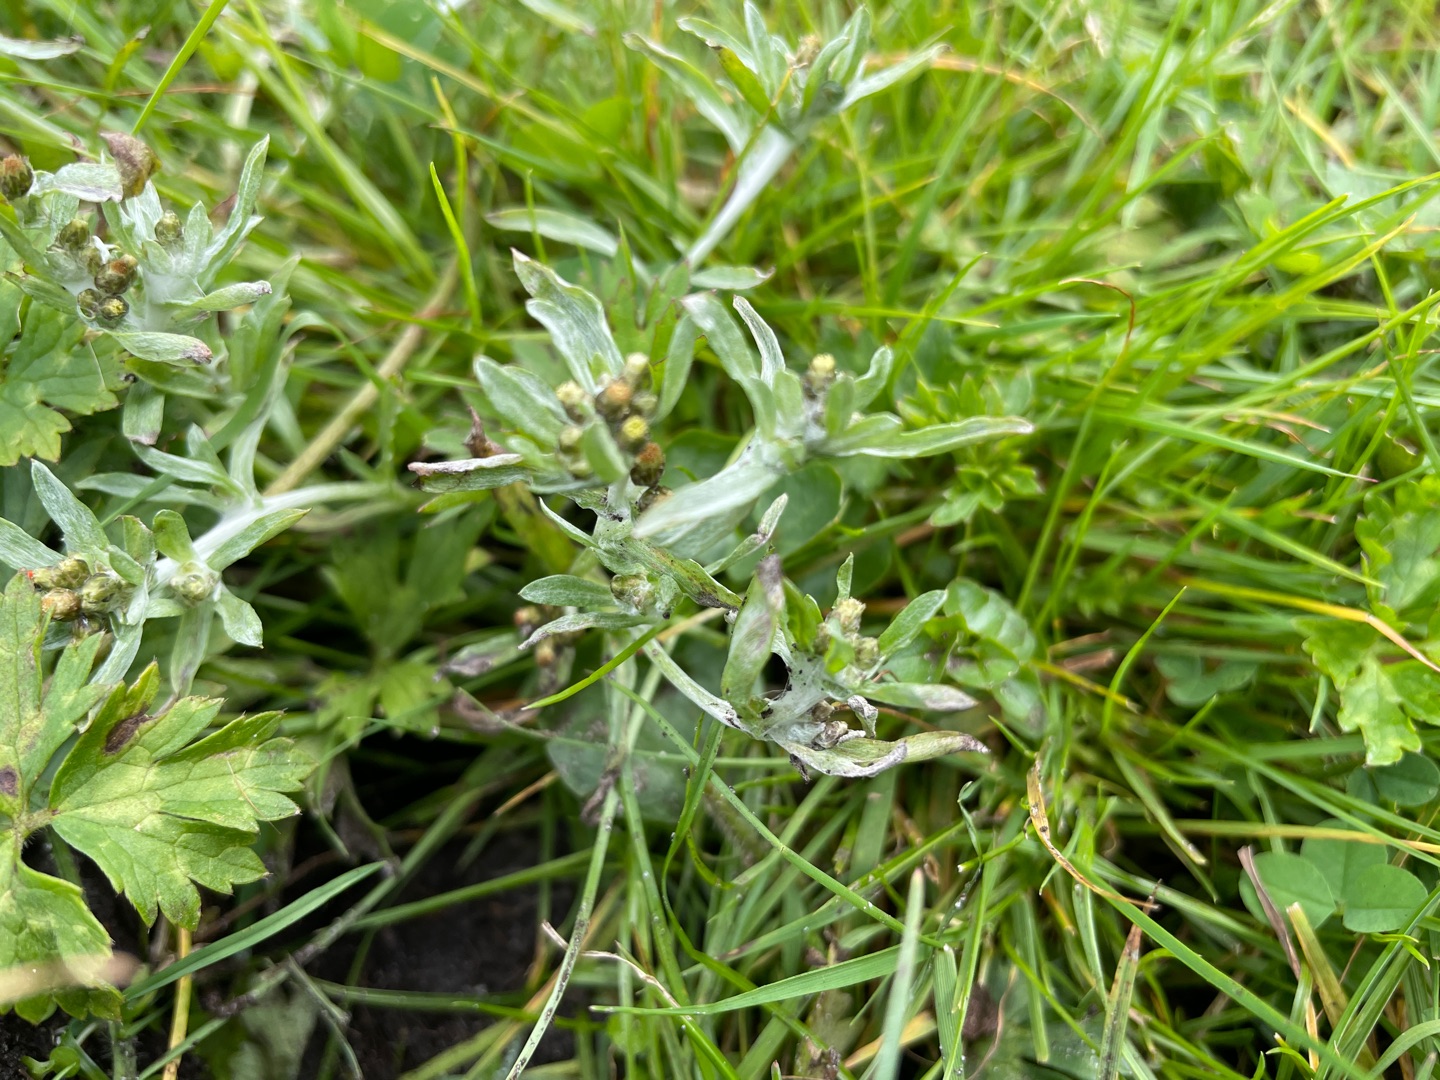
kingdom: Plantae
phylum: Tracheophyta
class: Magnoliopsida
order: Asterales
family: Asteraceae
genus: Gnaphalium
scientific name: Gnaphalium uliginosum
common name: Sump-evighedsblomst
